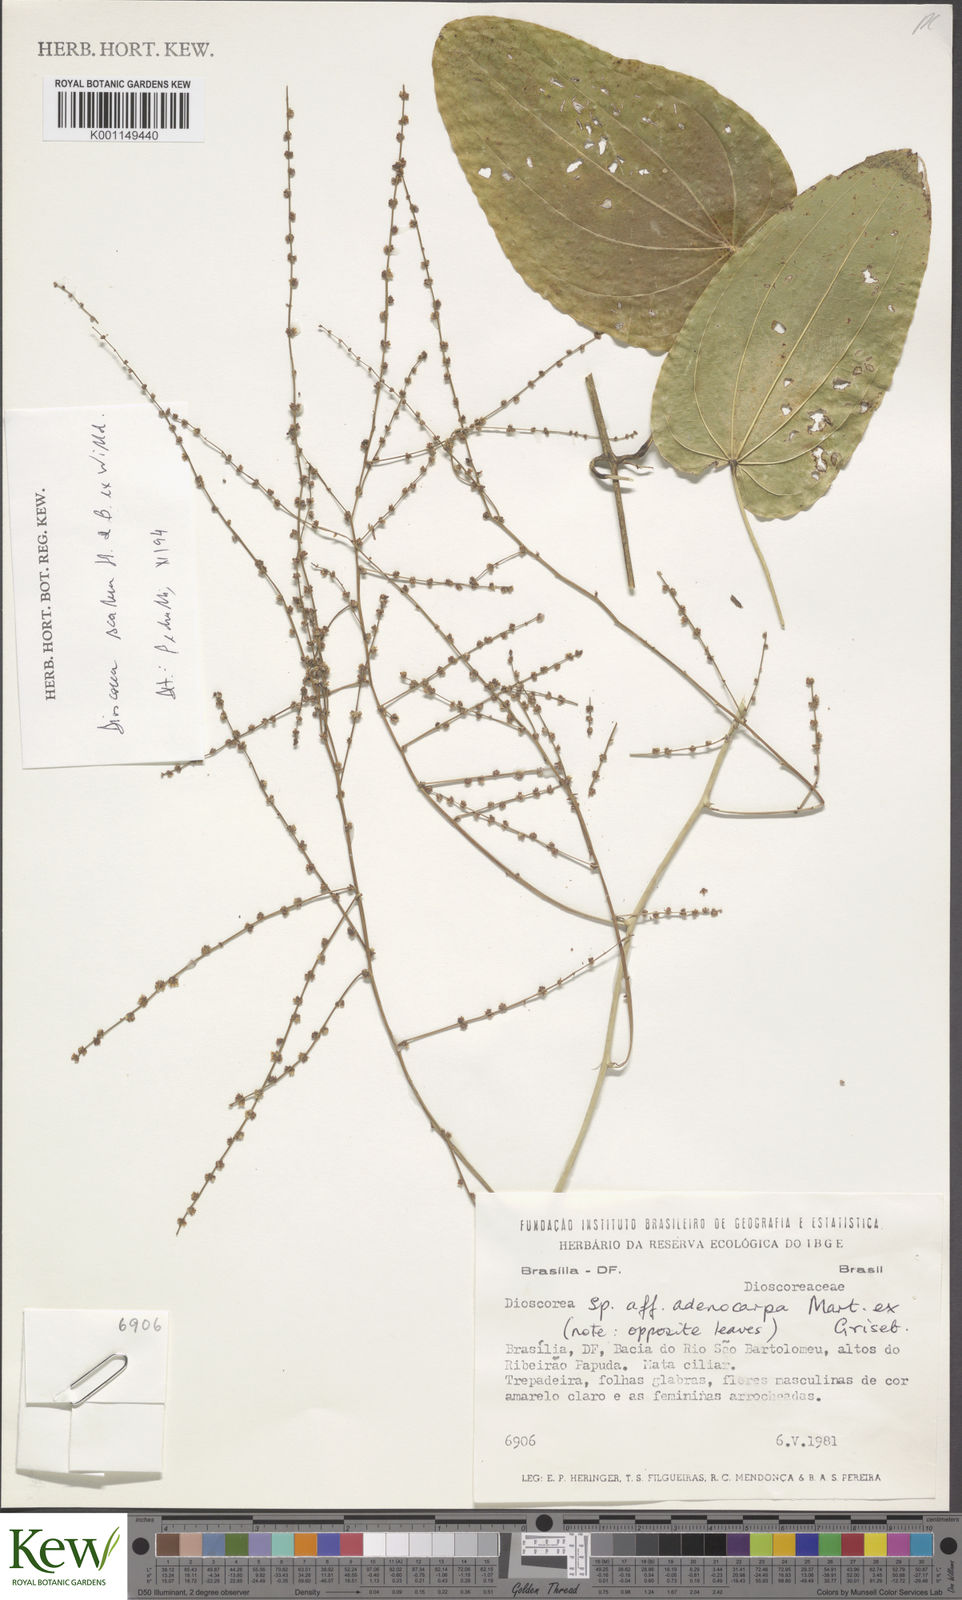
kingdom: Plantae
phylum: Tracheophyta
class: Liliopsida
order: Dioscoreales
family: Dioscoreaceae
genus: Dioscorea
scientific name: Dioscorea scabra
